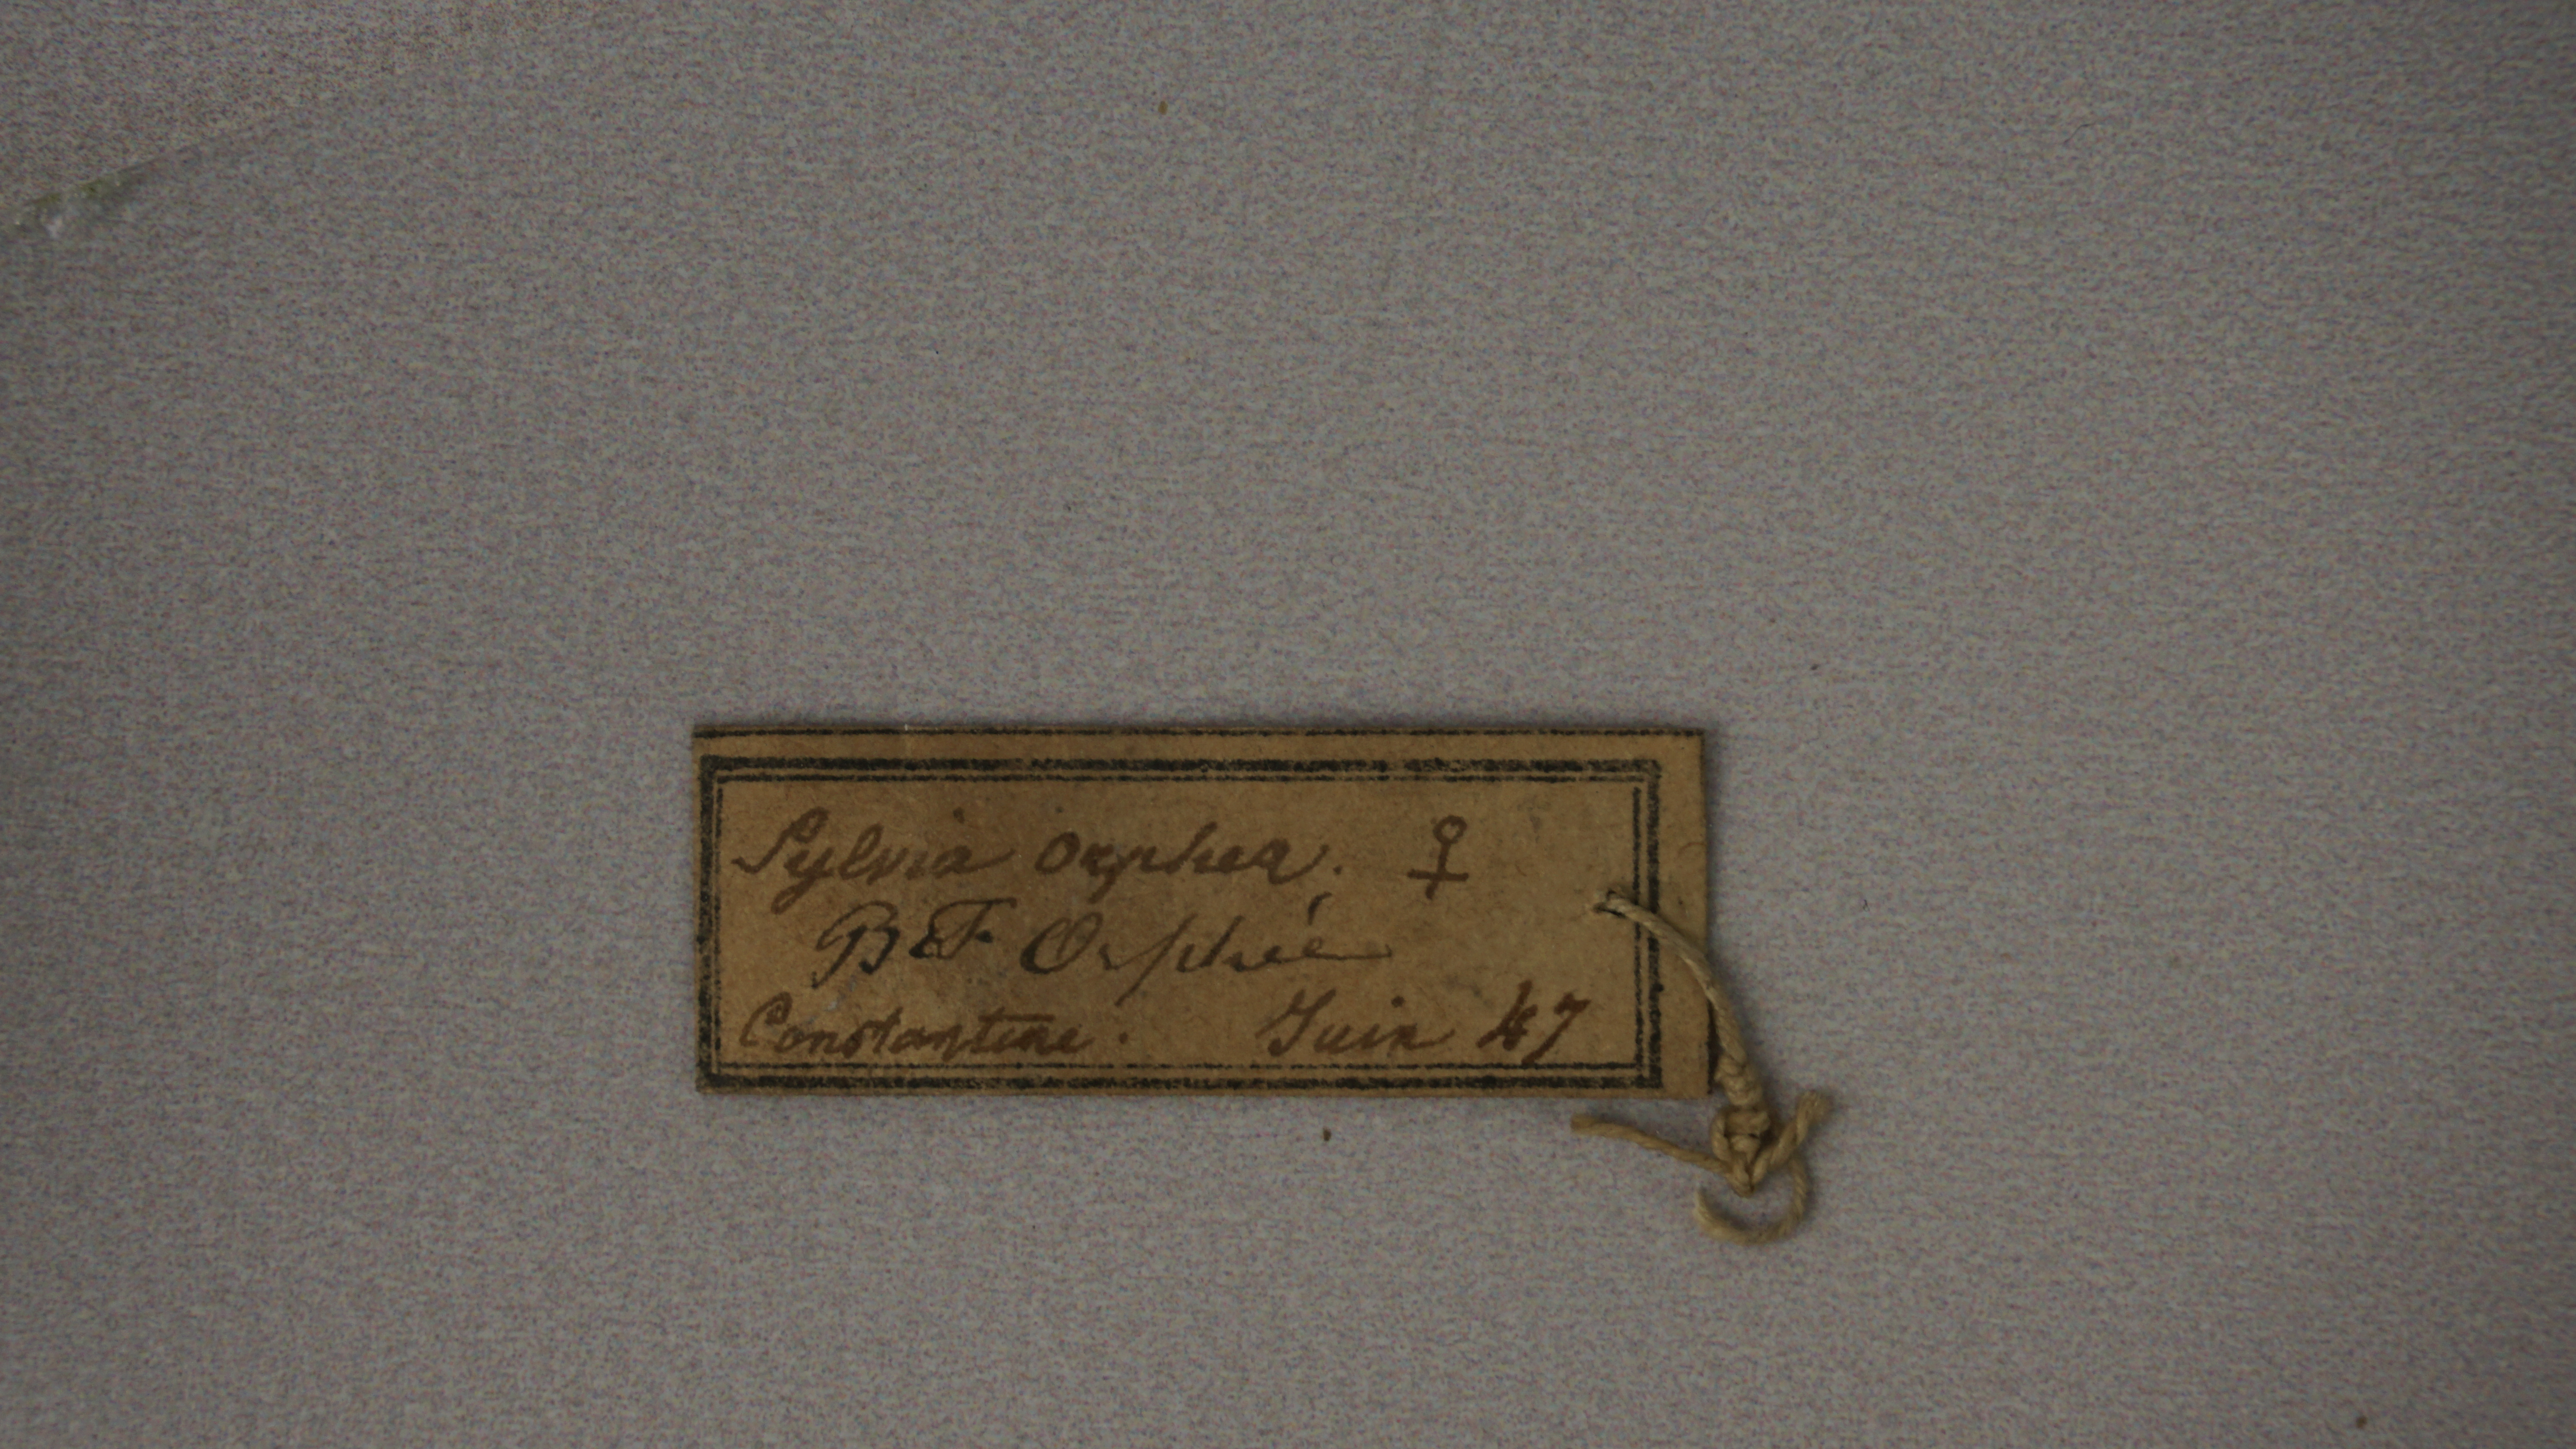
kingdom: Animalia
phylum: Chordata
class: Aves
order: Passeriformes
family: Sylviidae
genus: Sylvia
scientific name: Sylvia hortensis
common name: Orphean warbler
